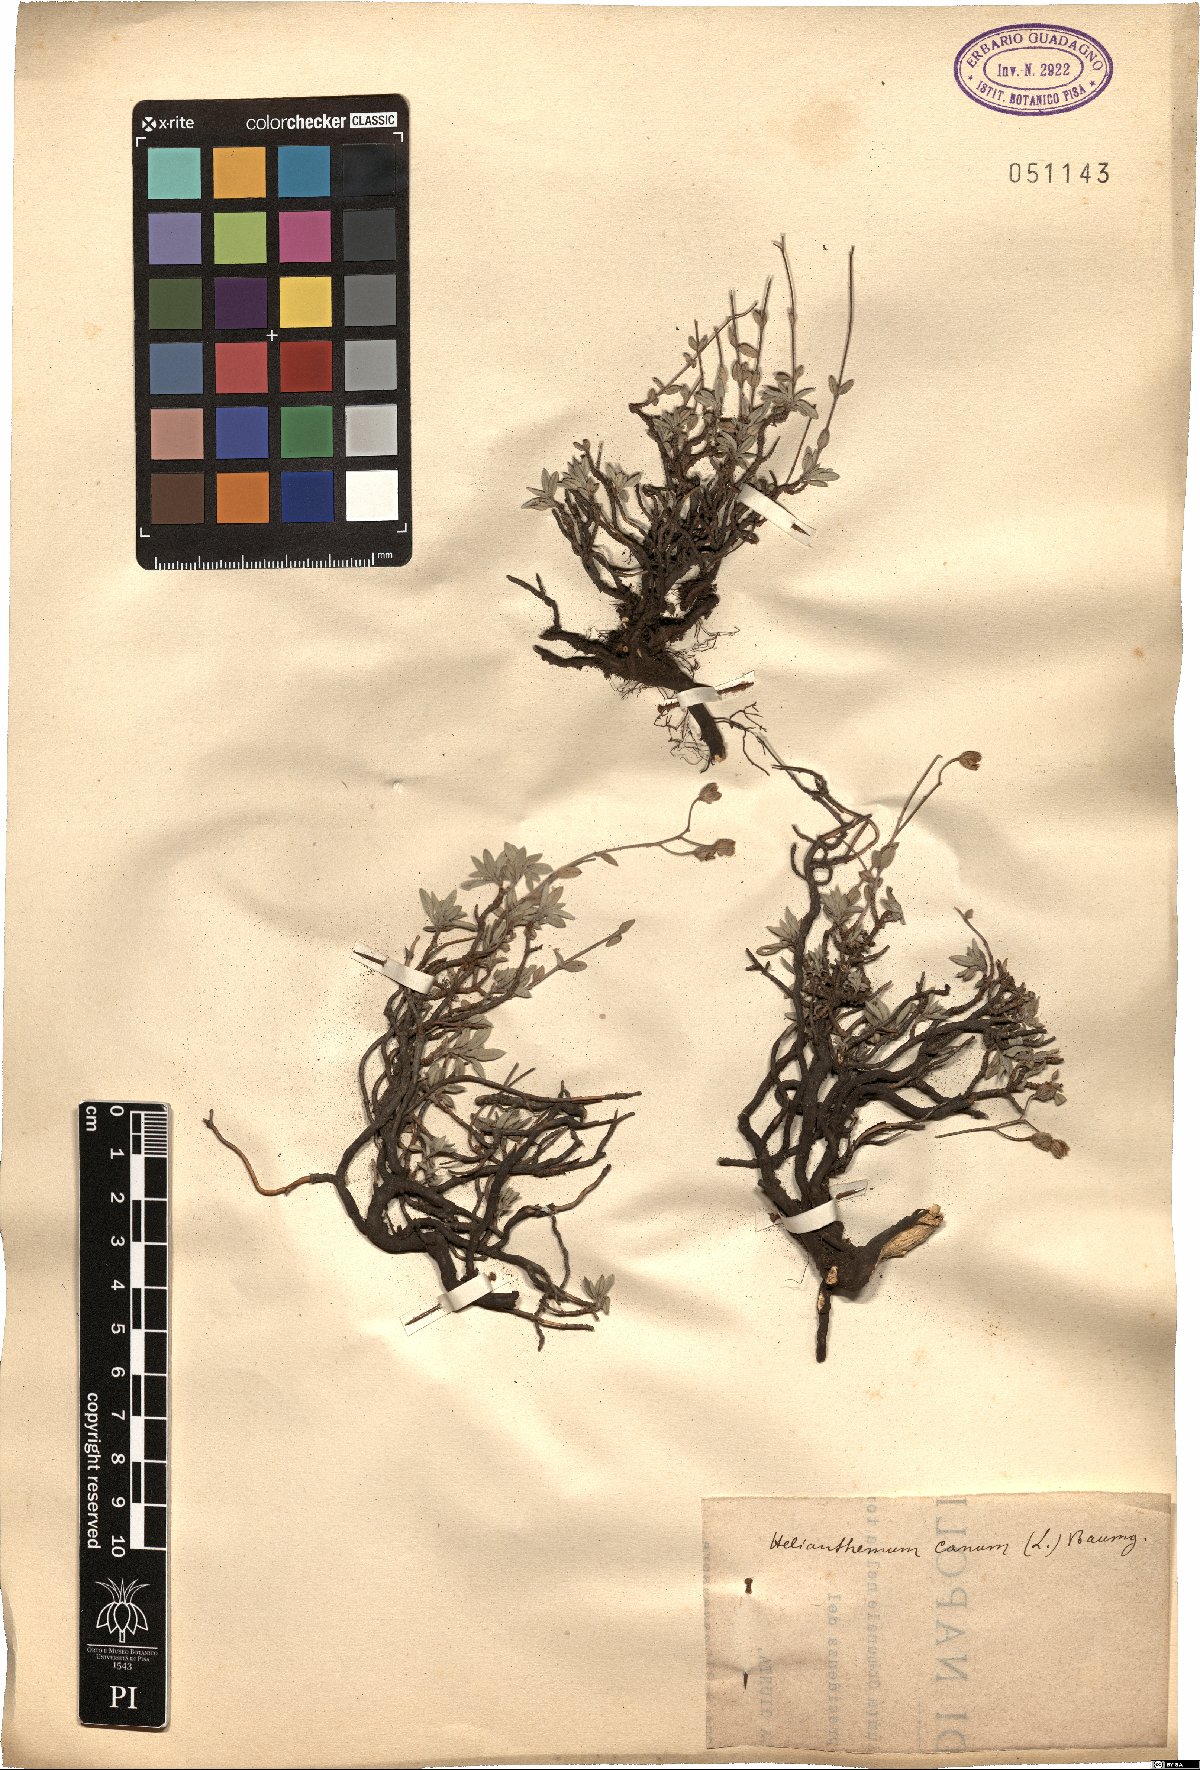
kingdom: Plantae
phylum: Tracheophyta
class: Magnoliopsida
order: Malvales
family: Cistaceae
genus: Helianthemum
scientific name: Helianthemum canum
